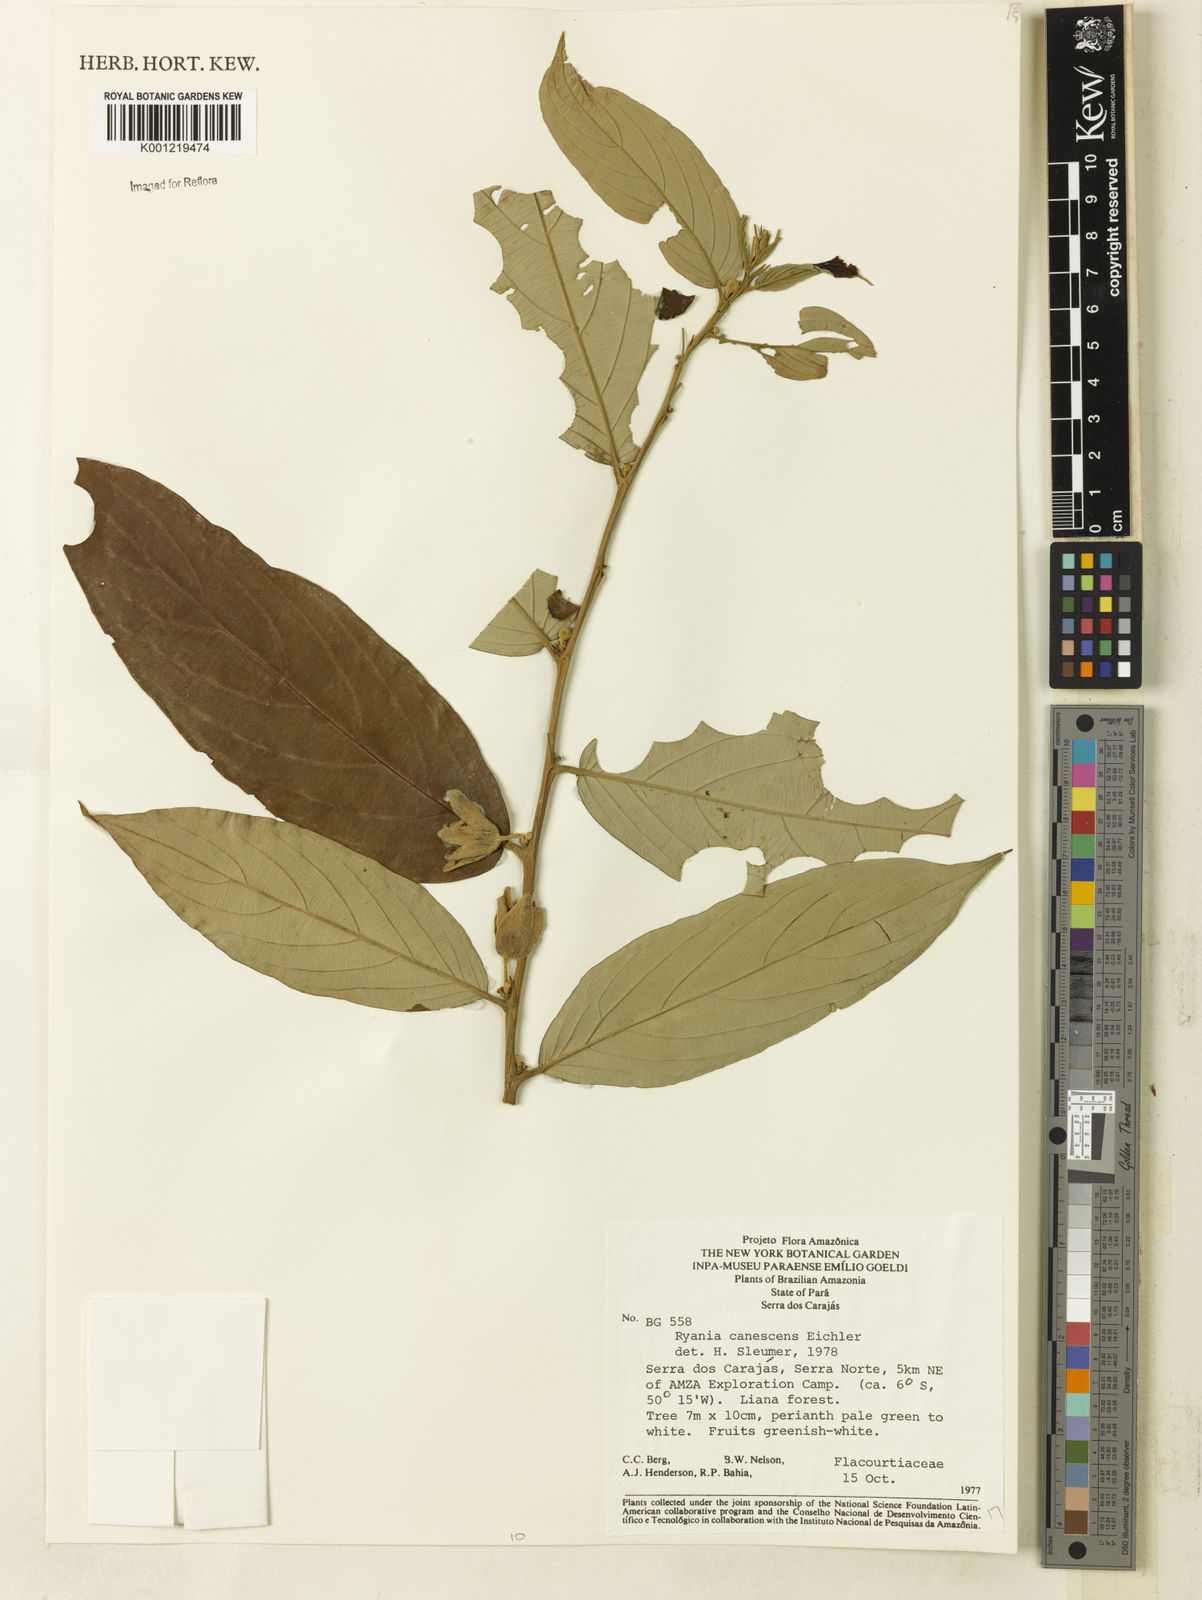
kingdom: Plantae
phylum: Tracheophyta
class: Magnoliopsida
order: Malpighiales
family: Salicaceae
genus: Ryania
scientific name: Ryania canescens
